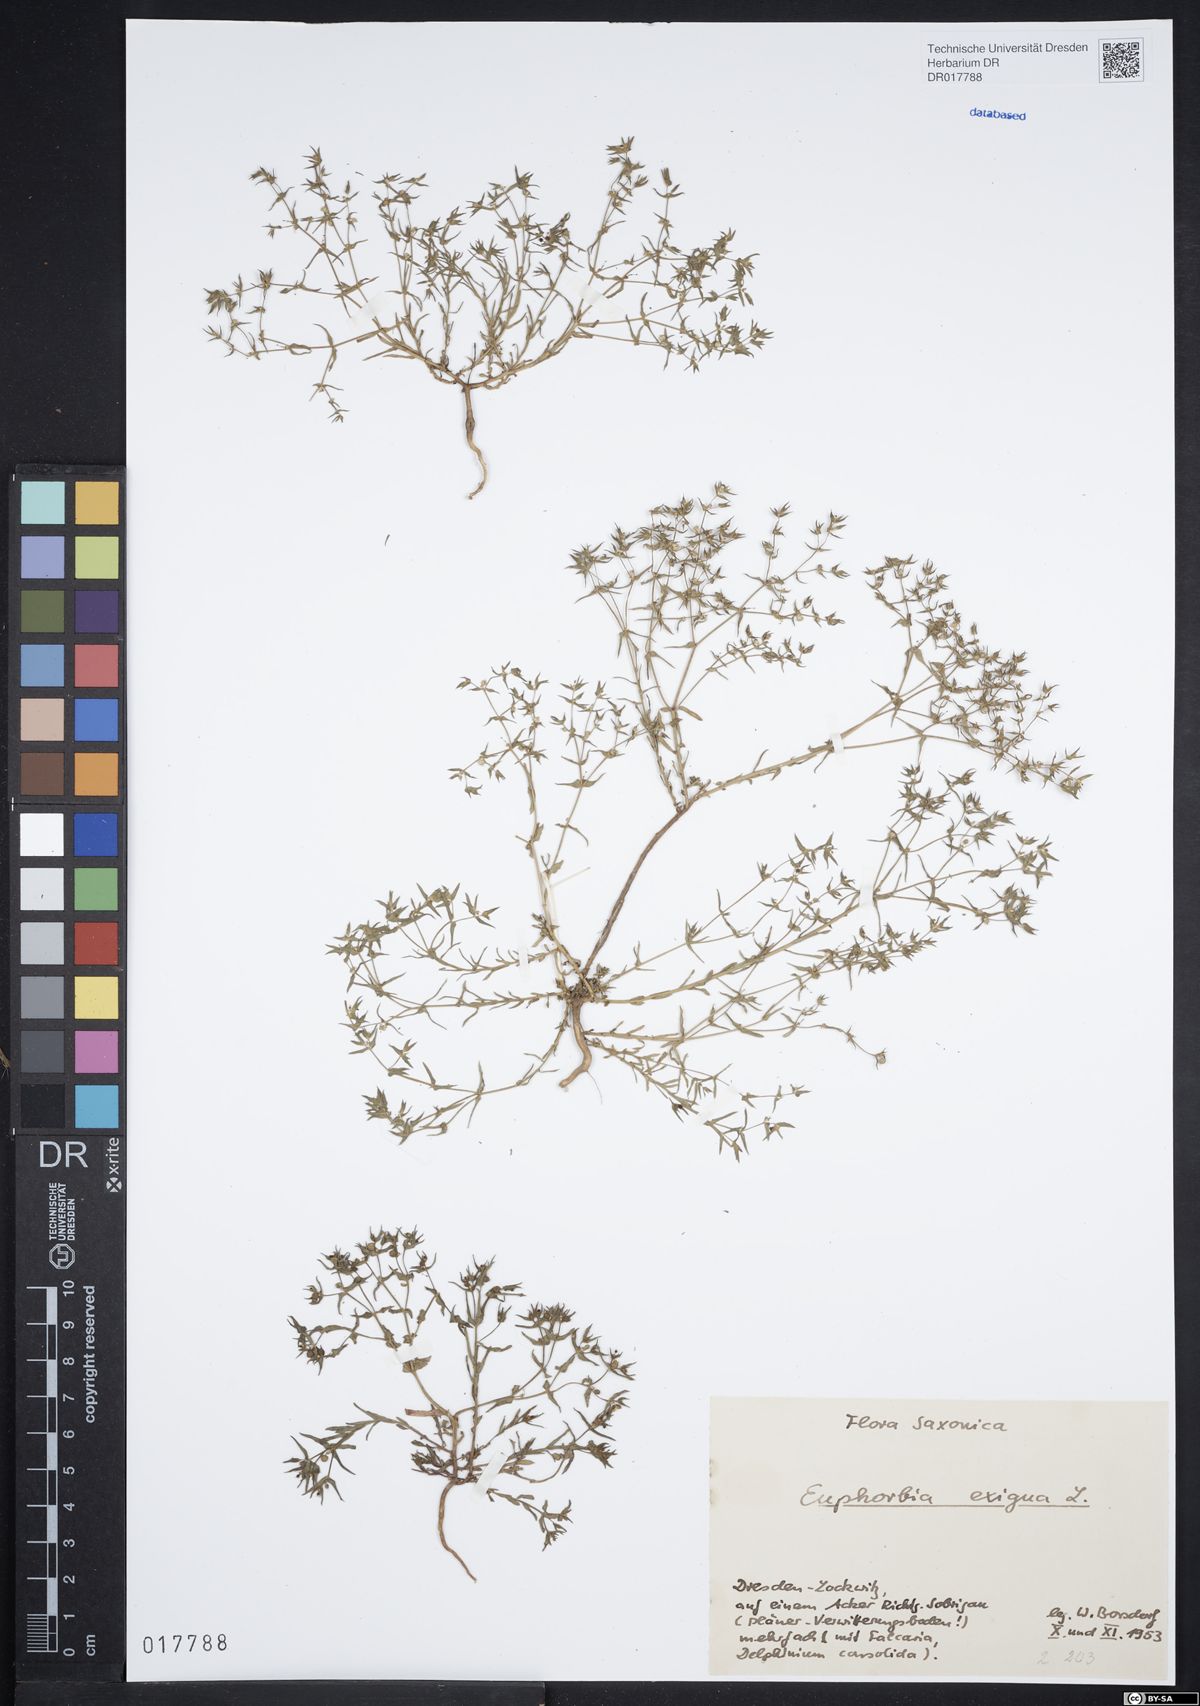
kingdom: Plantae
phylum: Tracheophyta
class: Magnoliopsida
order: Malpighiales
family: Euphorbiaceae
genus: Euphorbia
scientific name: Euphorbia exigua
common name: Dwarf spurge
